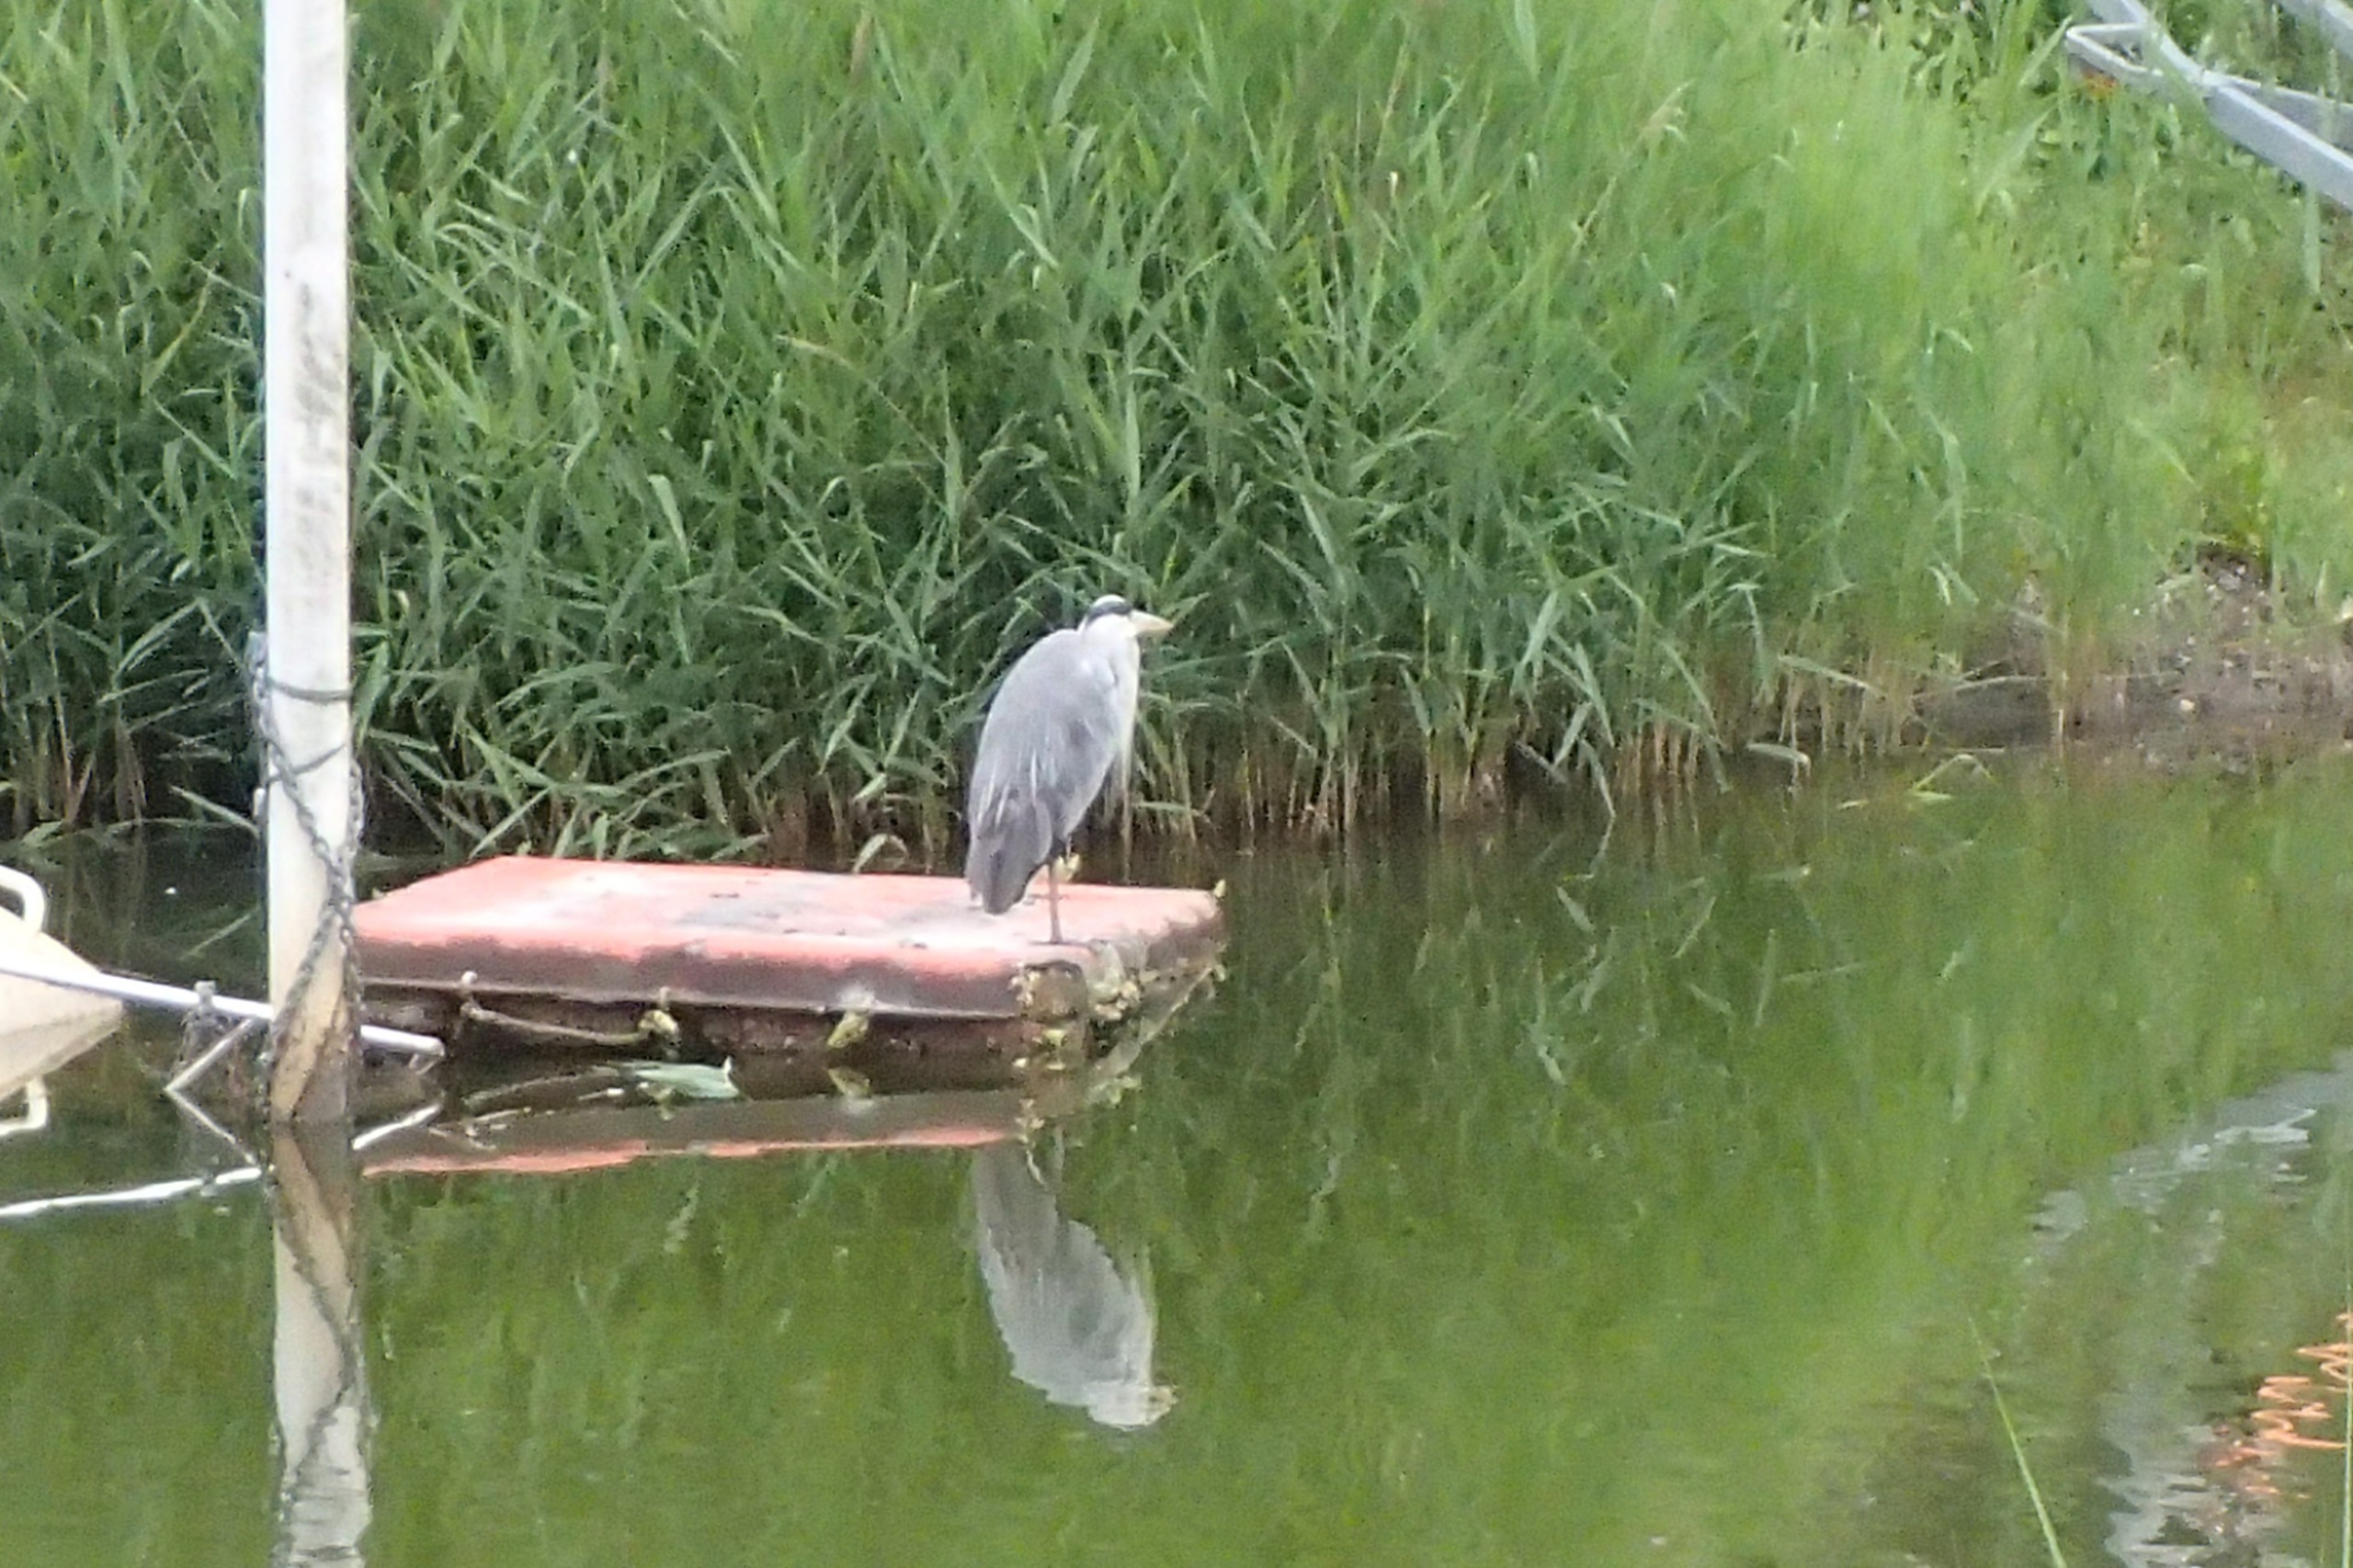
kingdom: Animalia
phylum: Chordata
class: Aves
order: Pelecaniformes
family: Ardeidae
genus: Ardea
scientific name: Ardea cinerea
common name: Fiskehejre
